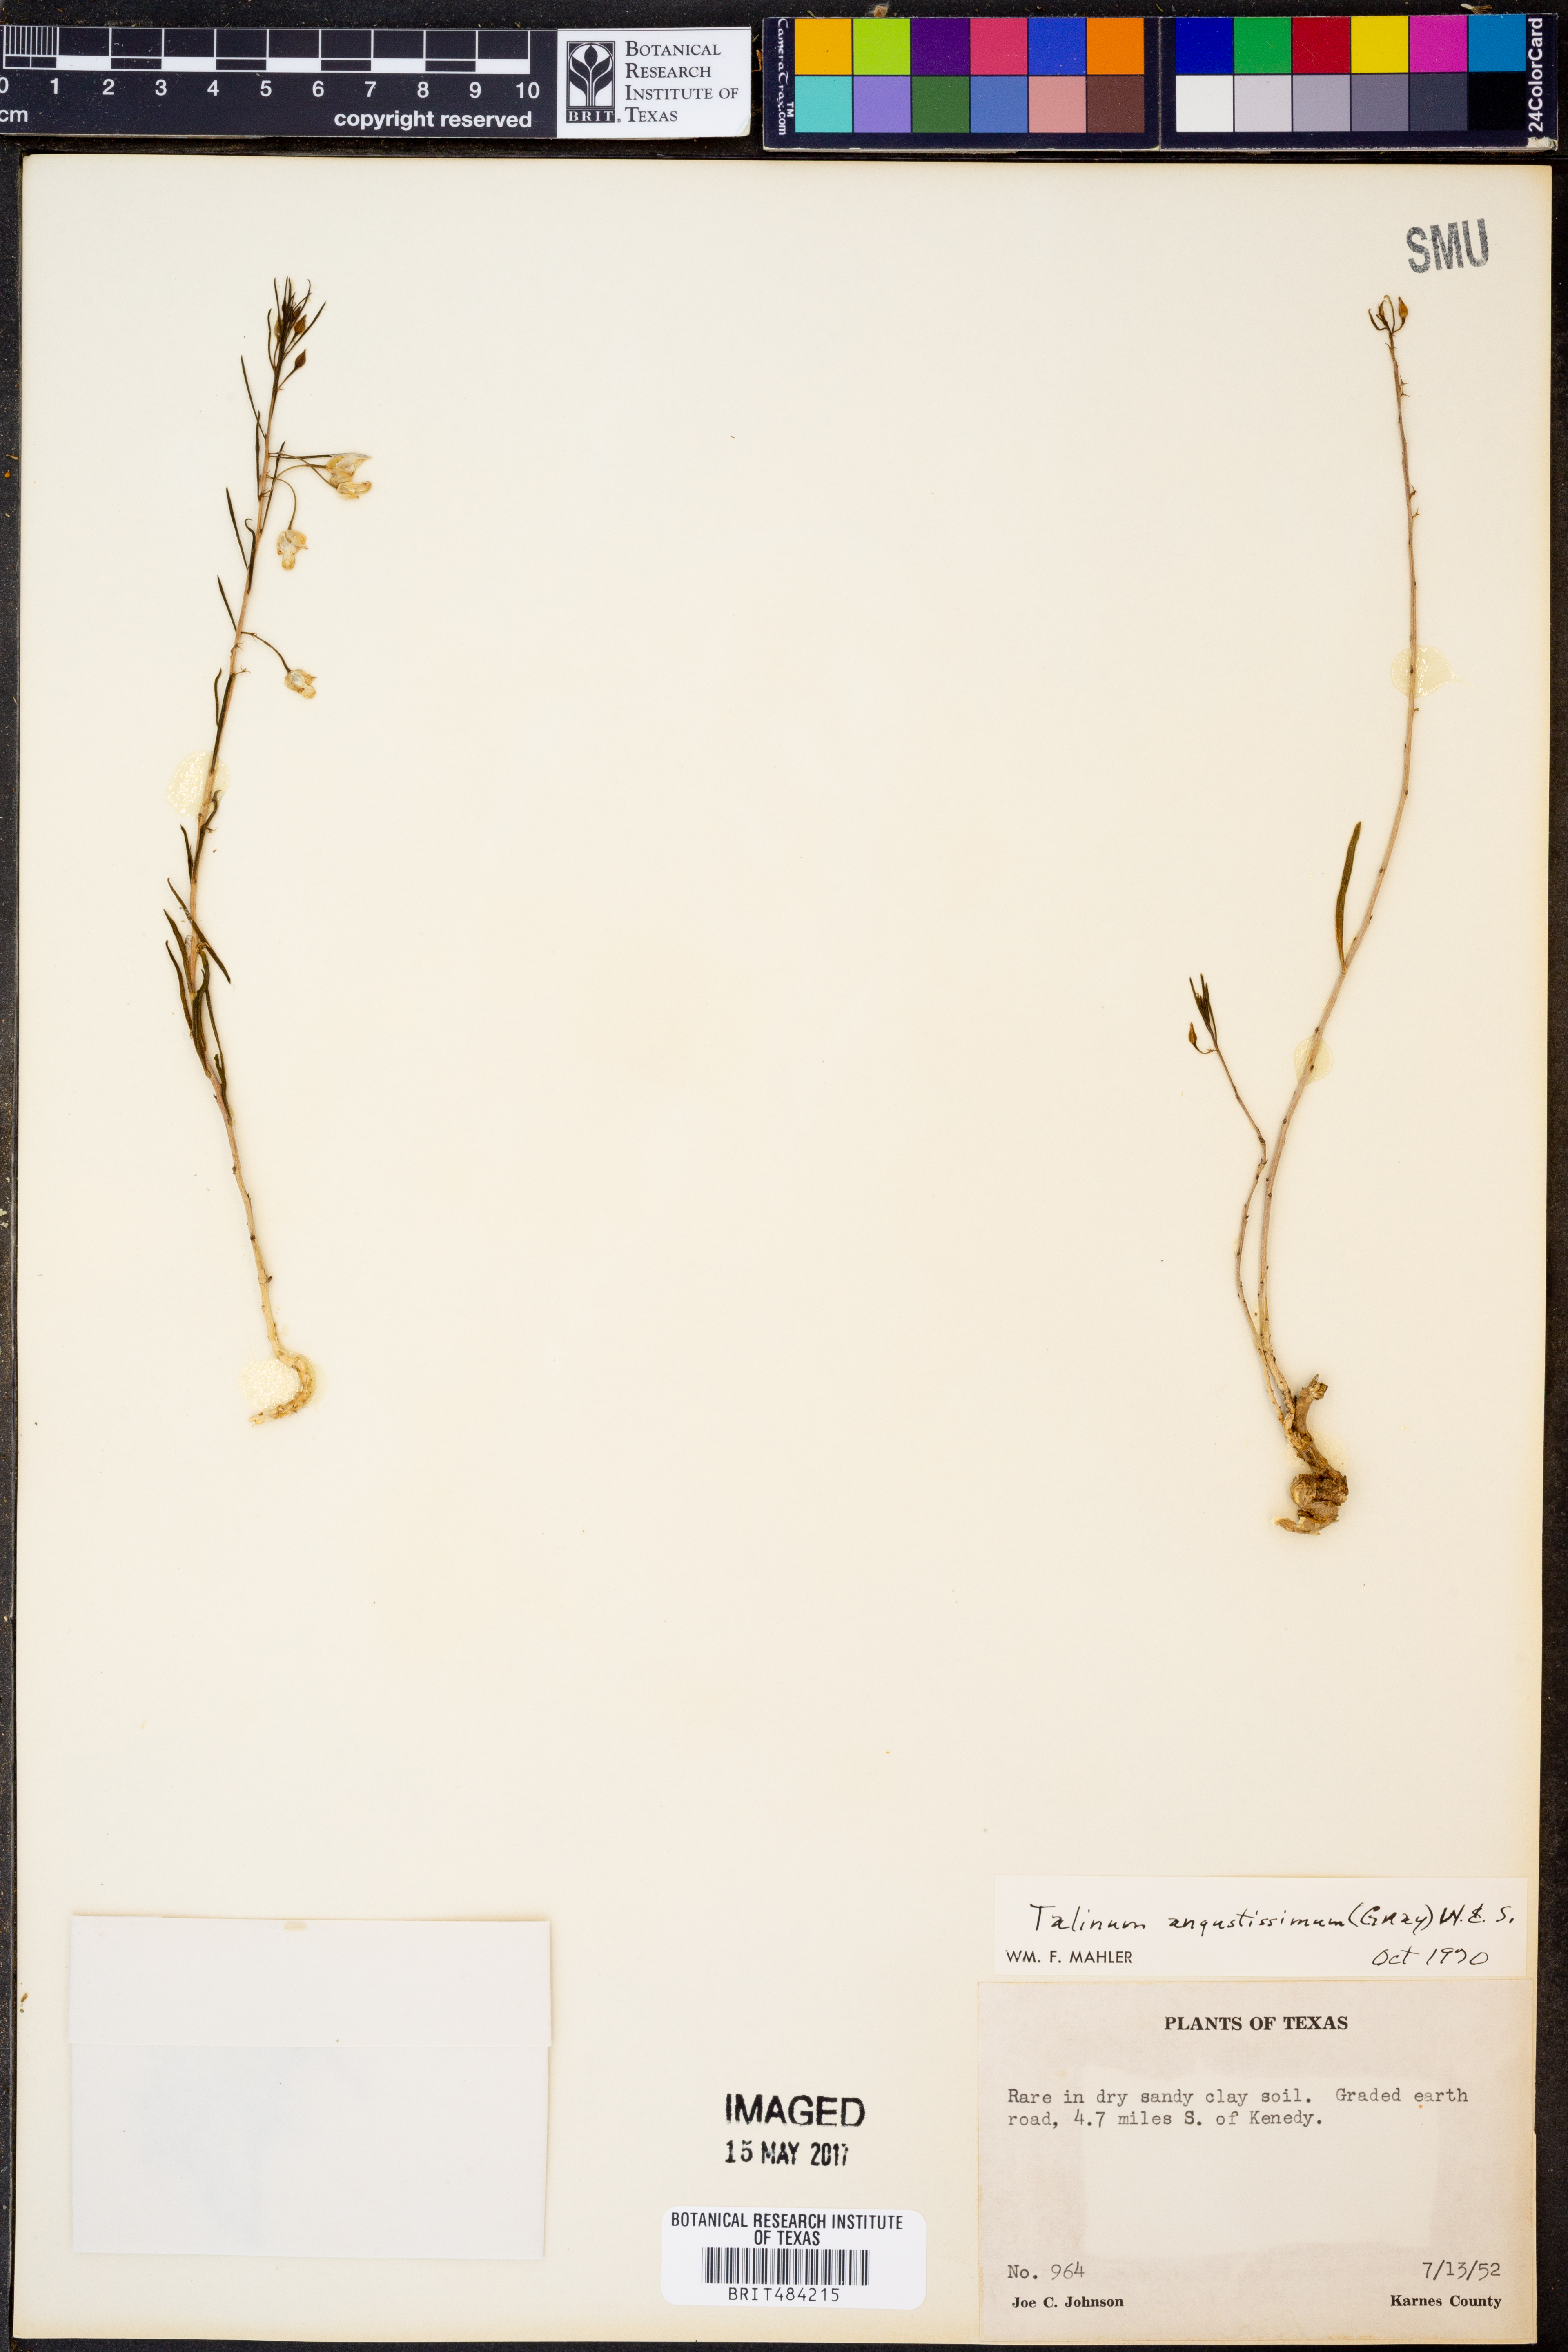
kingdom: Plantae
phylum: Tracheophyta
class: Magnoliopsida
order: Caryophyllales
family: Montiaceae
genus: Phemeranthus
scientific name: Phemeranthus aurantiacus
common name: Orange fameflower
